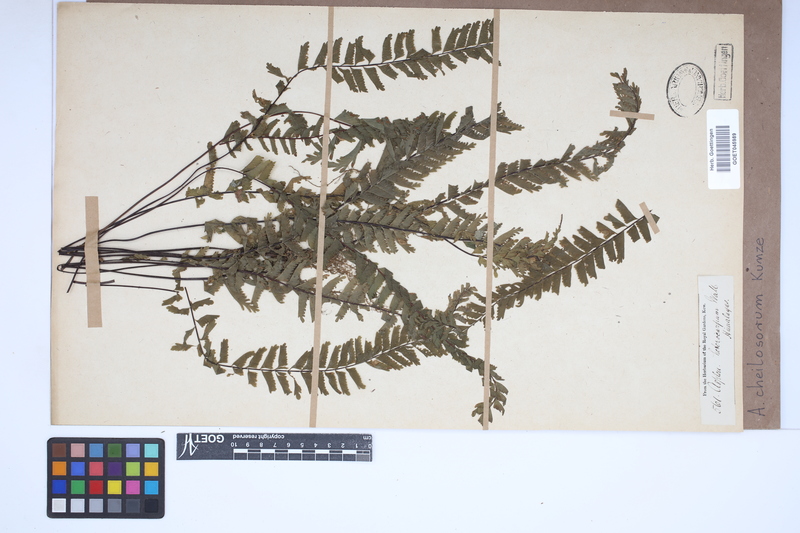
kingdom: Plantae
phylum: Tracheophyta
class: Polypodiopsida
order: Polypodiales
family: Aspleniaceae
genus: Hymenasplenium
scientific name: Hymenasplenium cheilosorum
